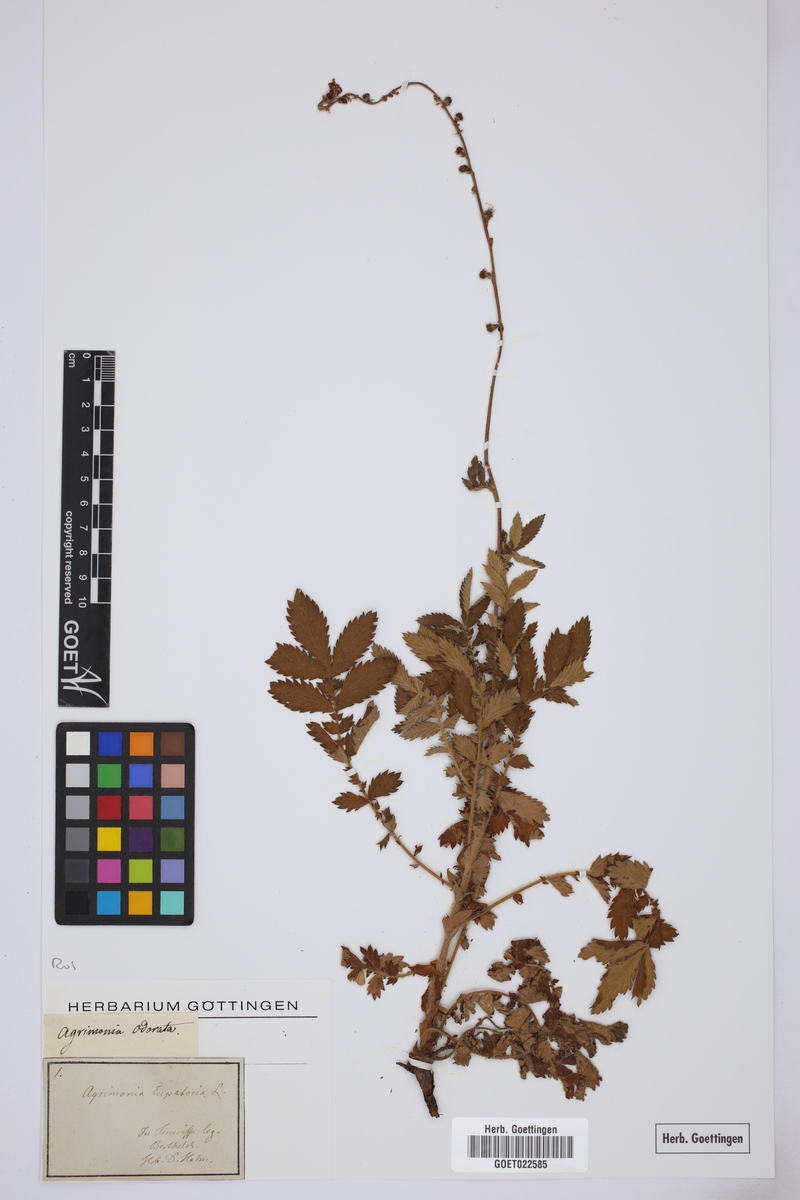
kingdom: Plantae
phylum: Tracheophyta
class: Magnoliopsida
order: Rosales
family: Rosaceae
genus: Agrimonia
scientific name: Agrimonia repens
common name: Creeping agrimony
